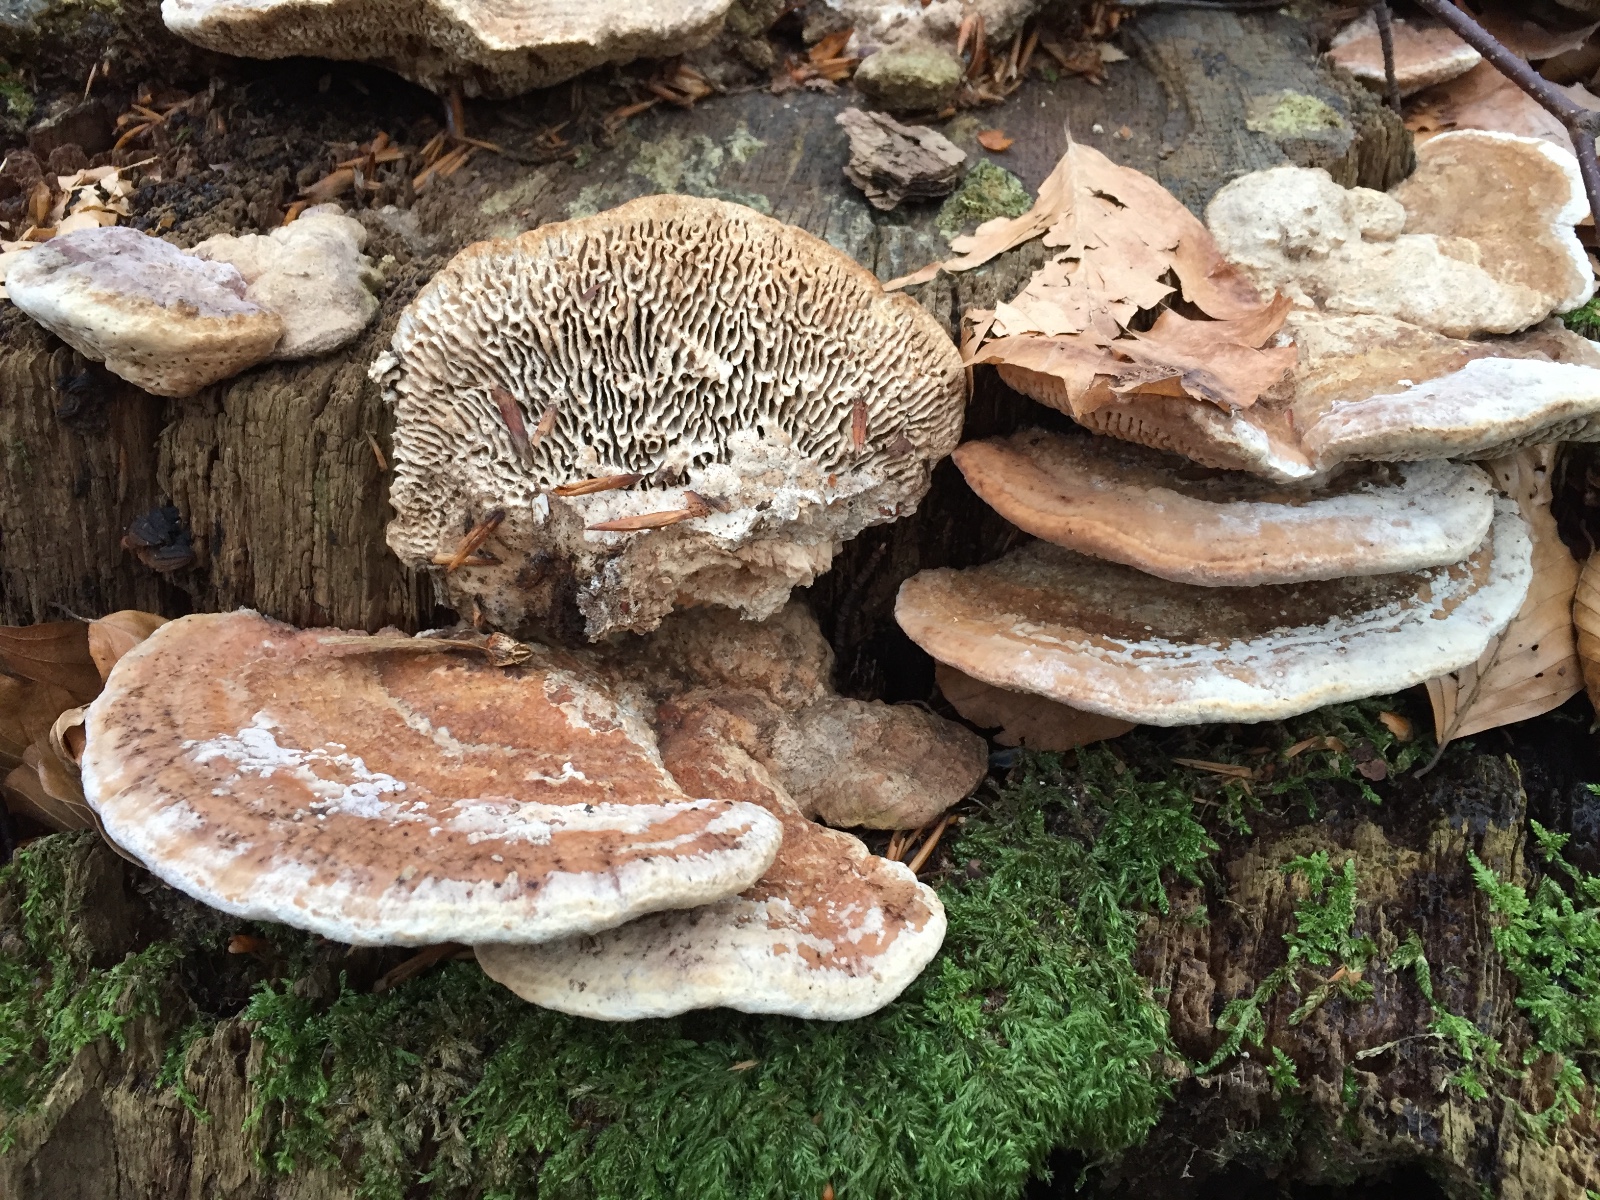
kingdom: Fungi
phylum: Basidiomycota
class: Agaricomycetes
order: Polyporales
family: Fomitopsidaceae
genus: Daedalea
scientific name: Daedalea quercina
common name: ege-labyrintsvamp
